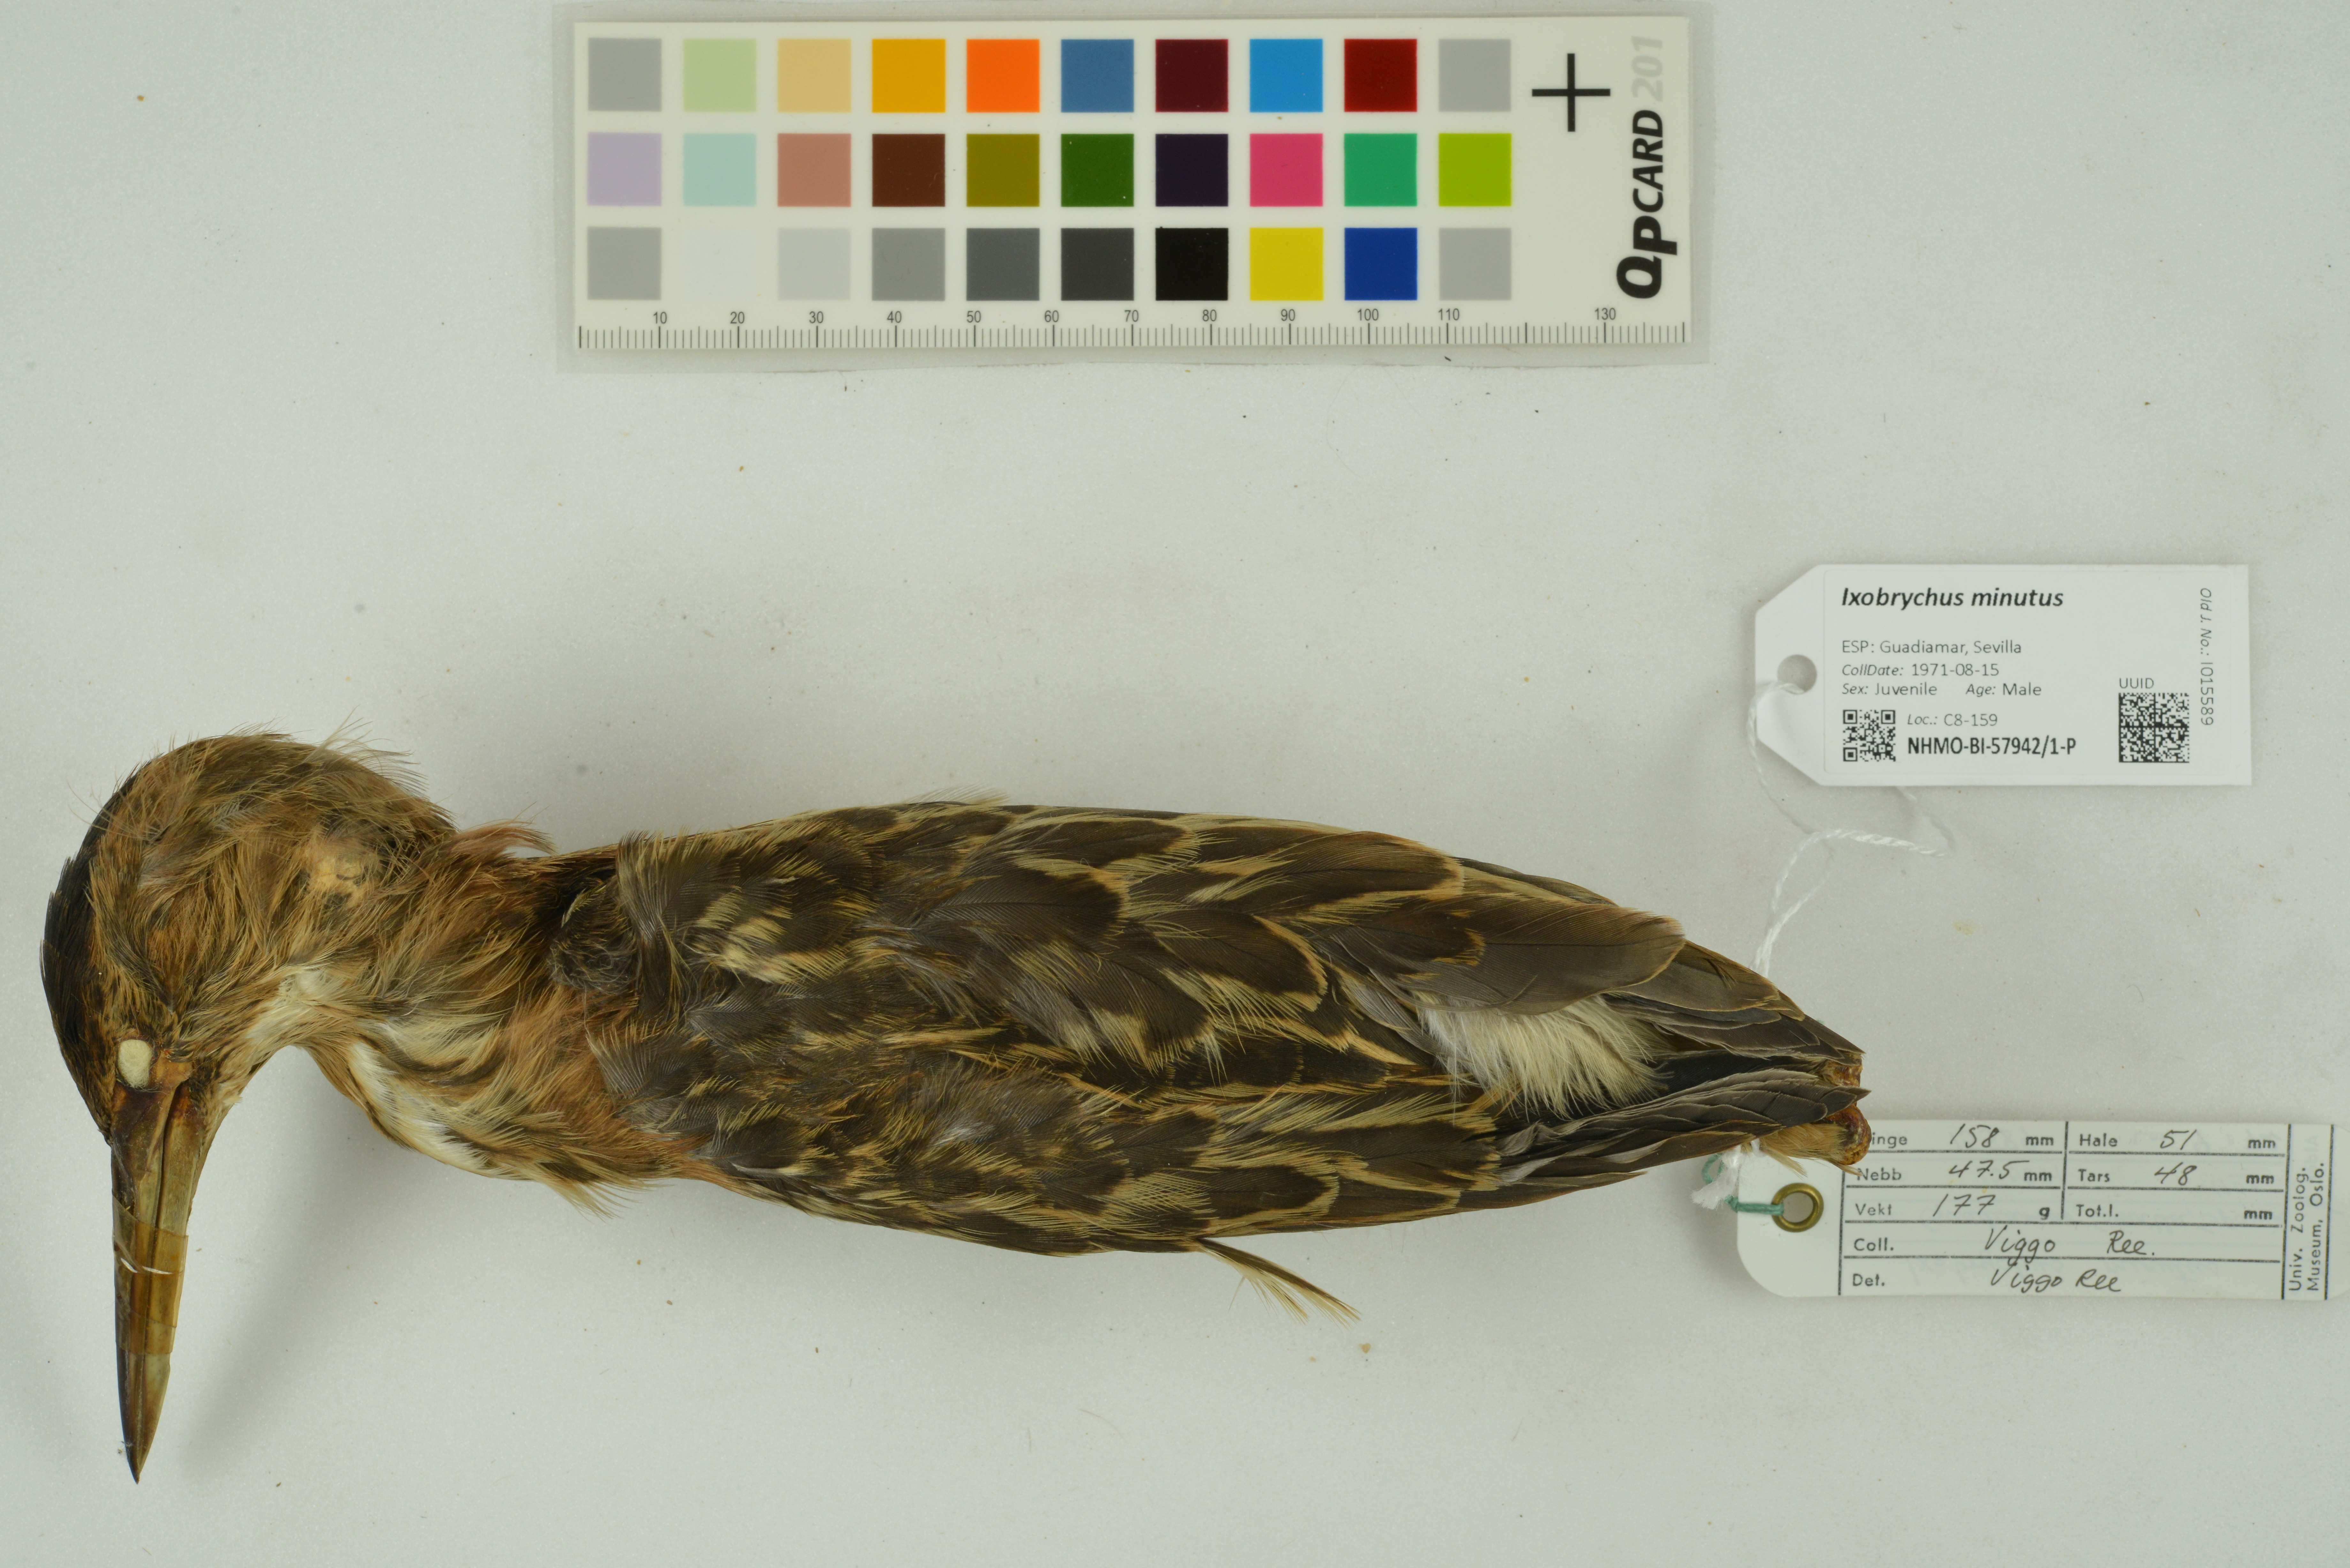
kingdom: Animalia
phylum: Chordata
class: Aves
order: Pelecaniformes
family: Ardeidae
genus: Ixobrychus
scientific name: Ixobrychus minutus
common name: Little bittern
